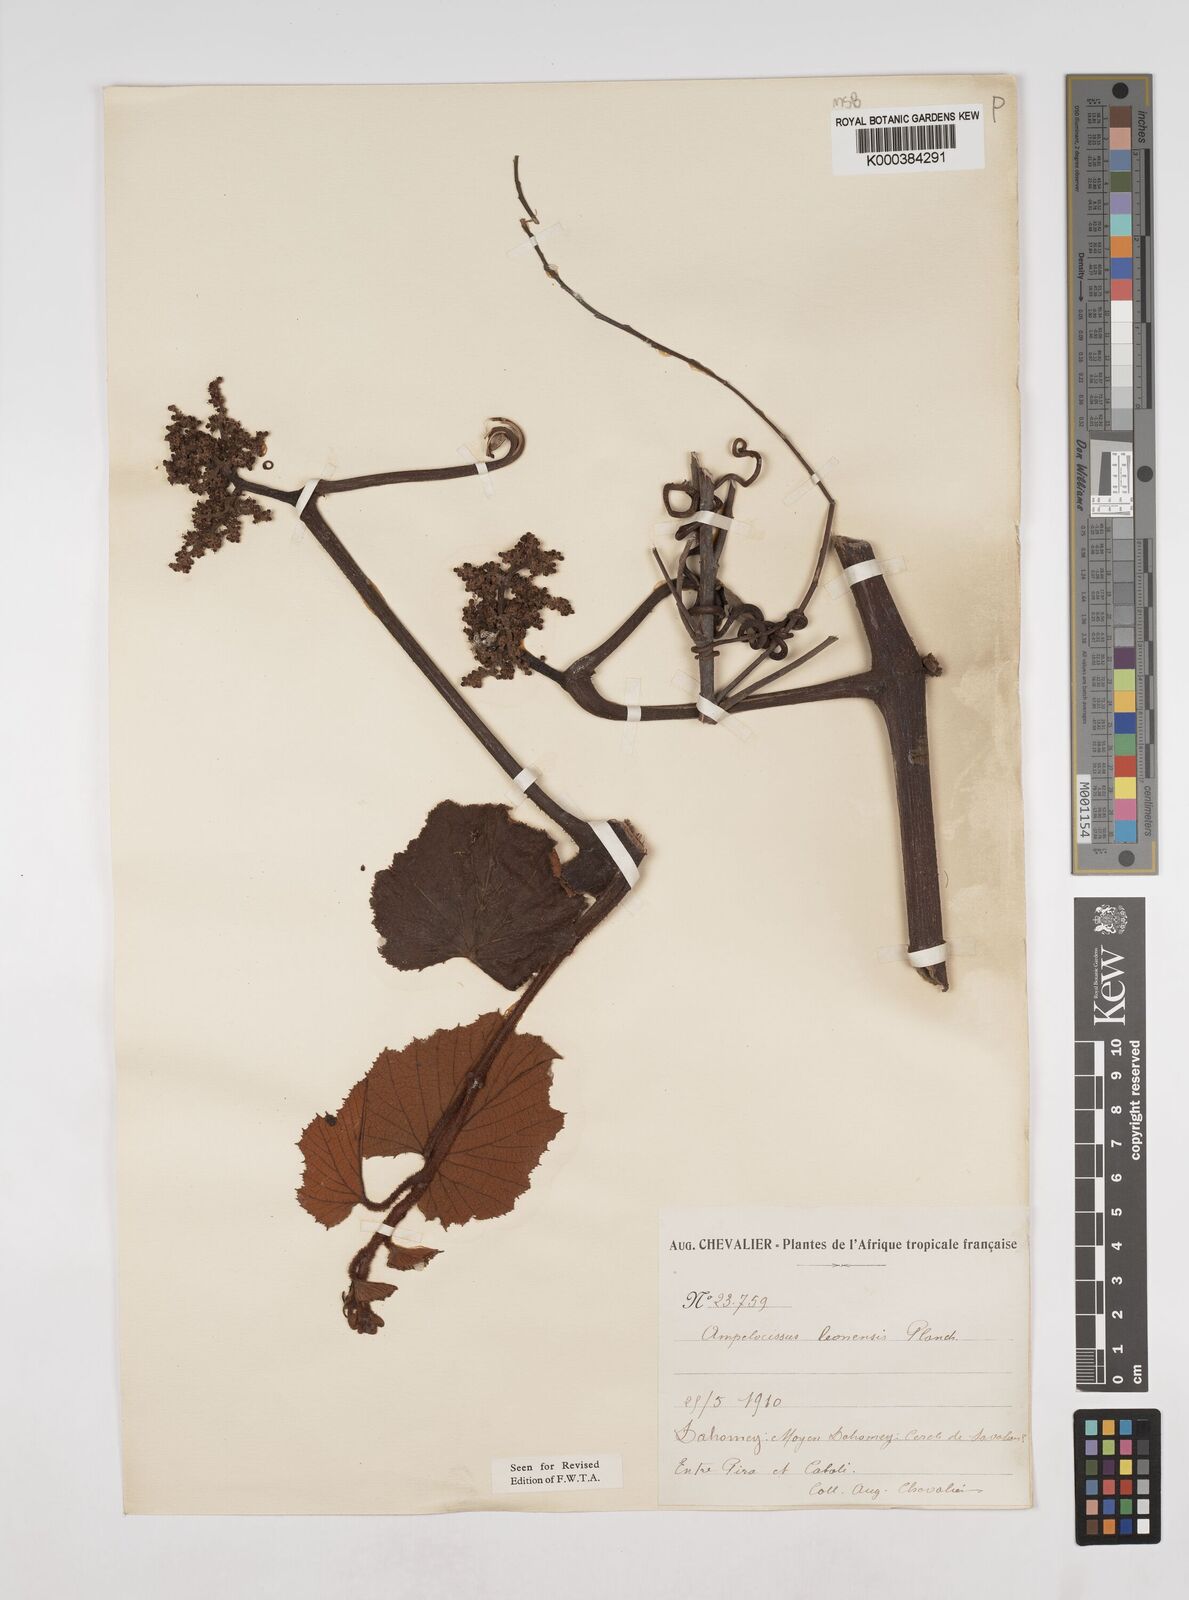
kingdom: Plantae
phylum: Tracheophyta
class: Magnoliopsida
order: Vitales
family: Vitaceae
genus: Ampelocissus
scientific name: Ampelocissus leonensis
